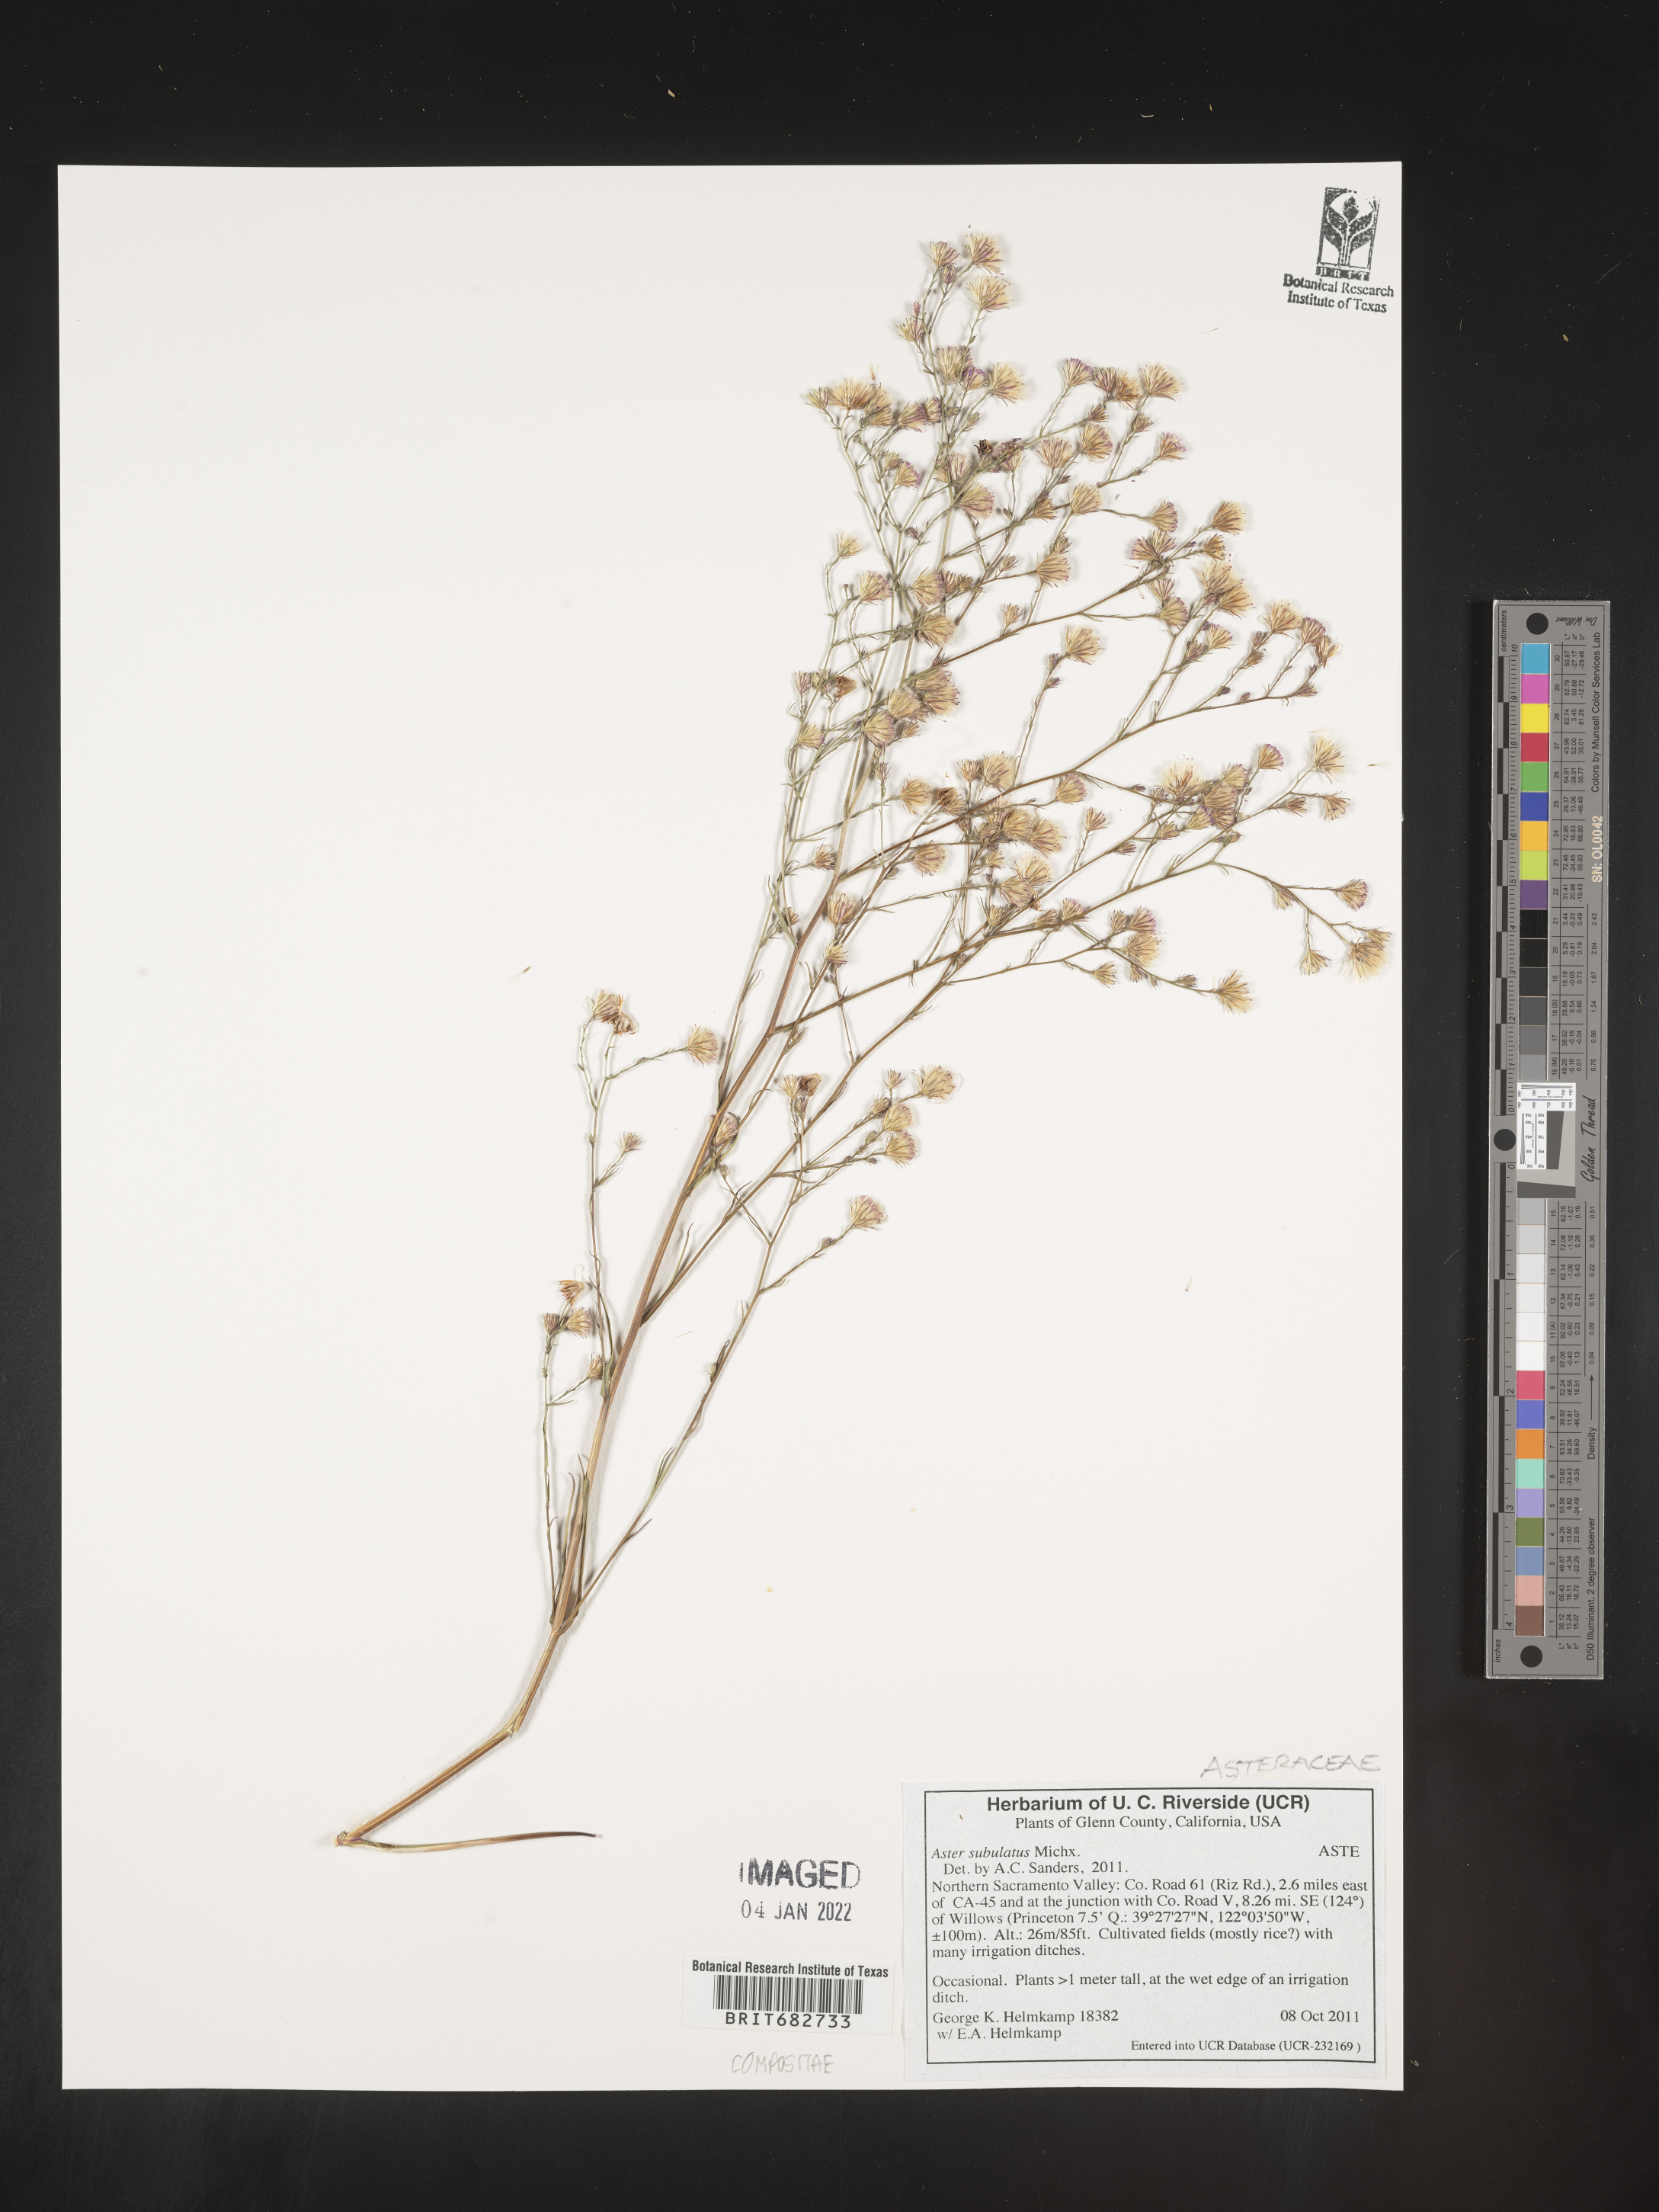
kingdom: Plantae
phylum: Tracheophyta
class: Magnoliopsida
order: Asterales
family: Asteraceae
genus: Aster
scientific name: Aster
